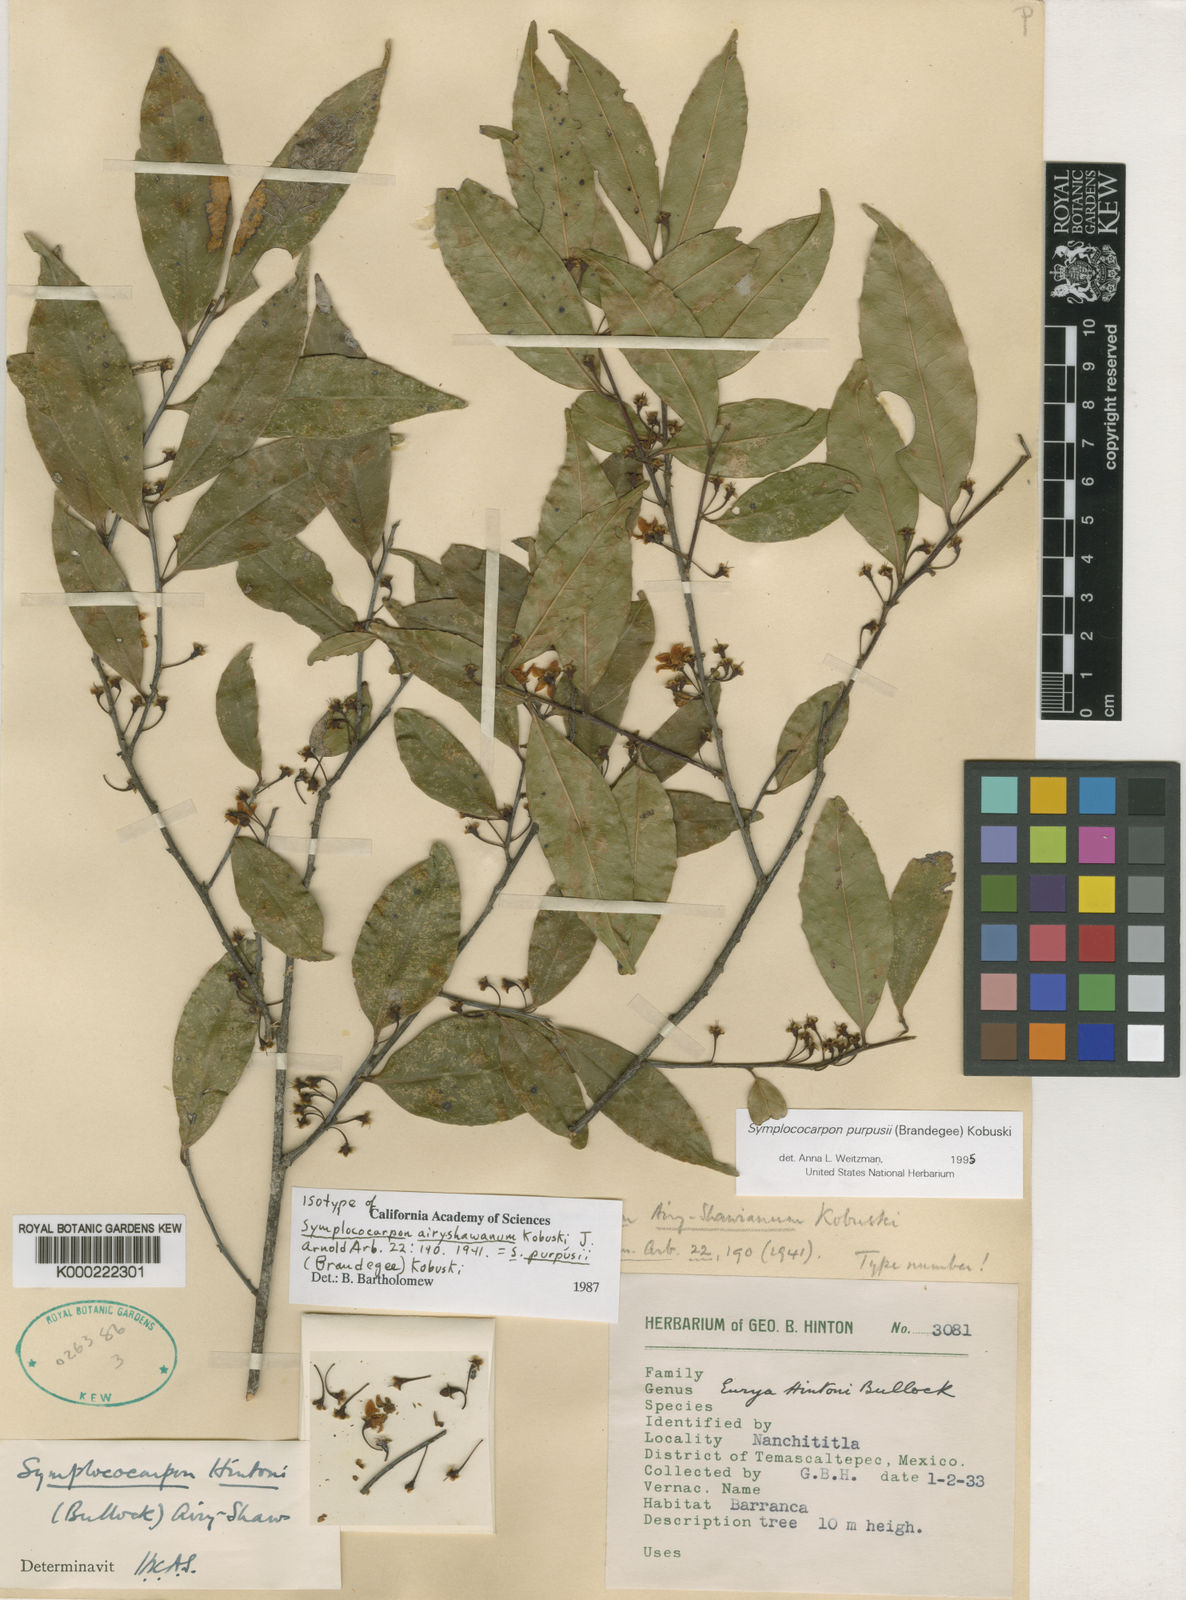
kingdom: Plantae
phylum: Tracheophyta
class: Magnoliopsida
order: Ericales
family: Pentaphylacaceae
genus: Symplococarpon
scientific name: Symplococarpon purpusii
